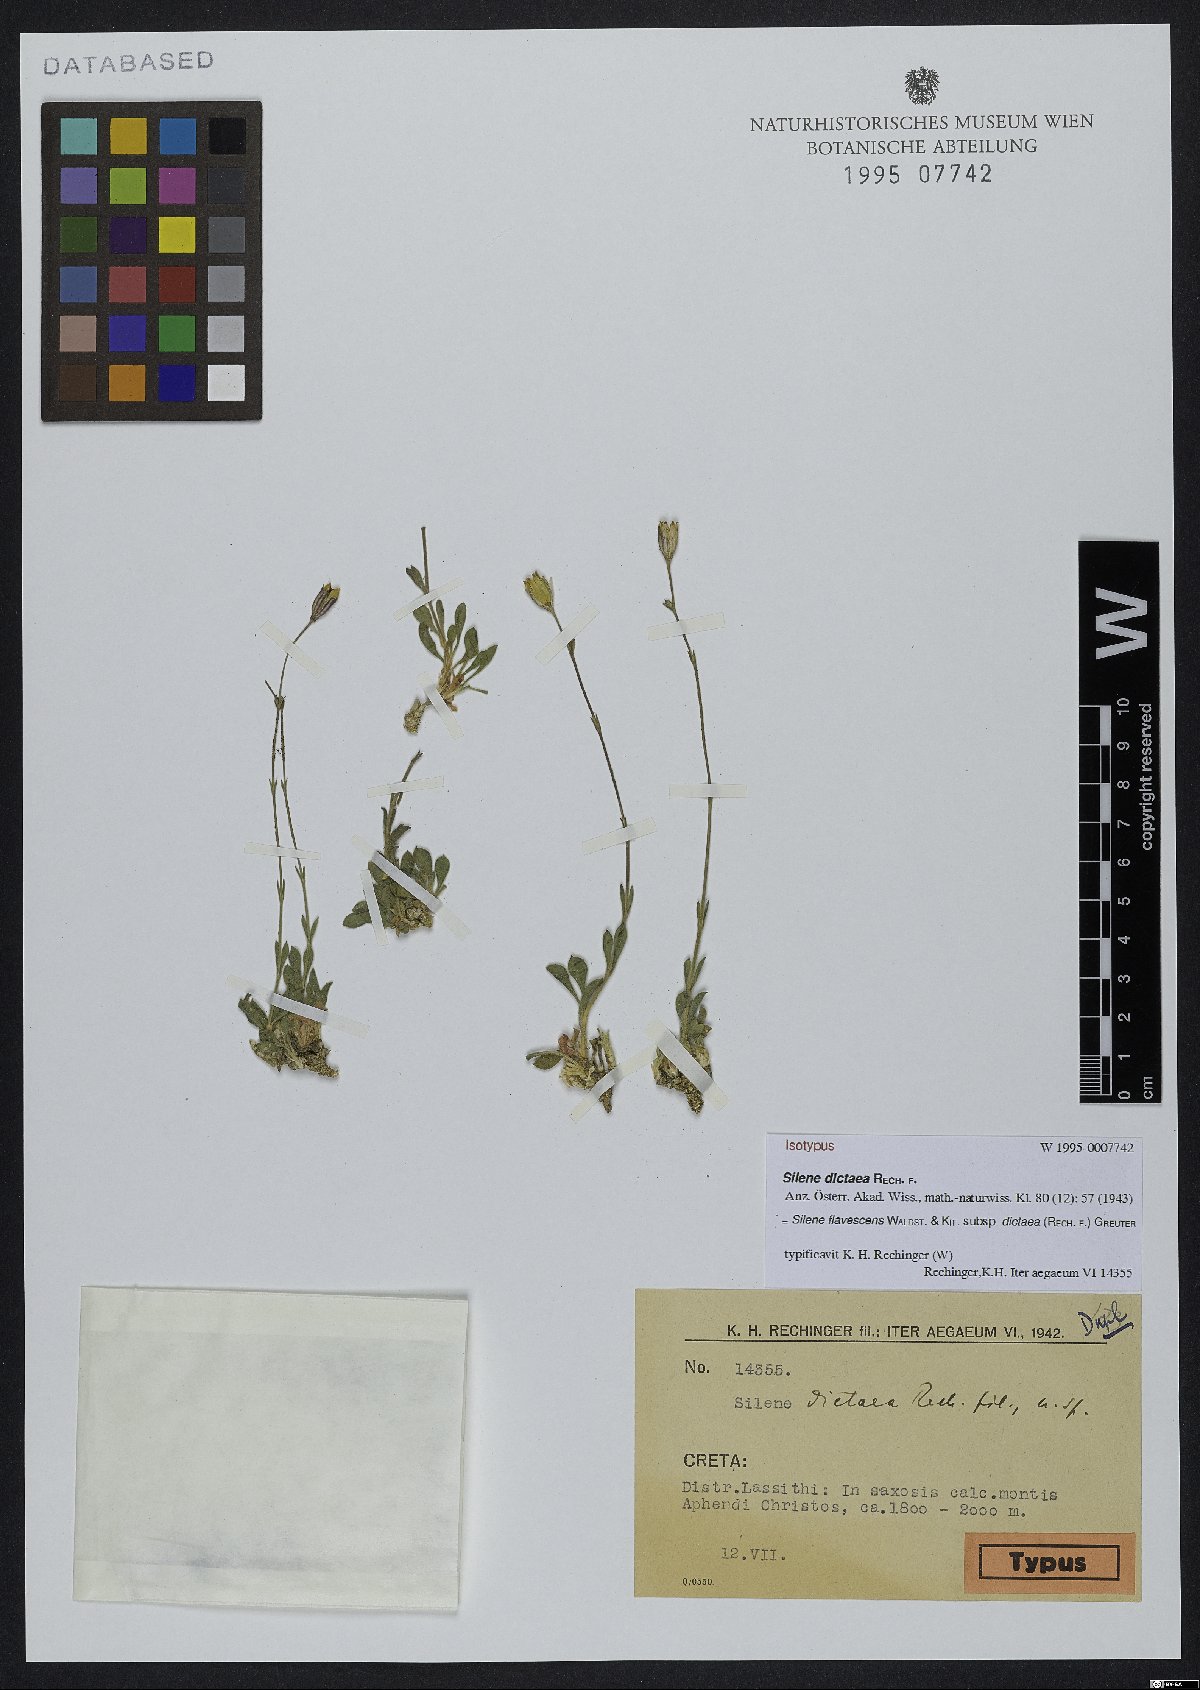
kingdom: Plantae
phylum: Tracheophyta
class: Magnoliopsida
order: Caryophyllales
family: Caryophyllaceae
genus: Silene
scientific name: Silene flavescens
